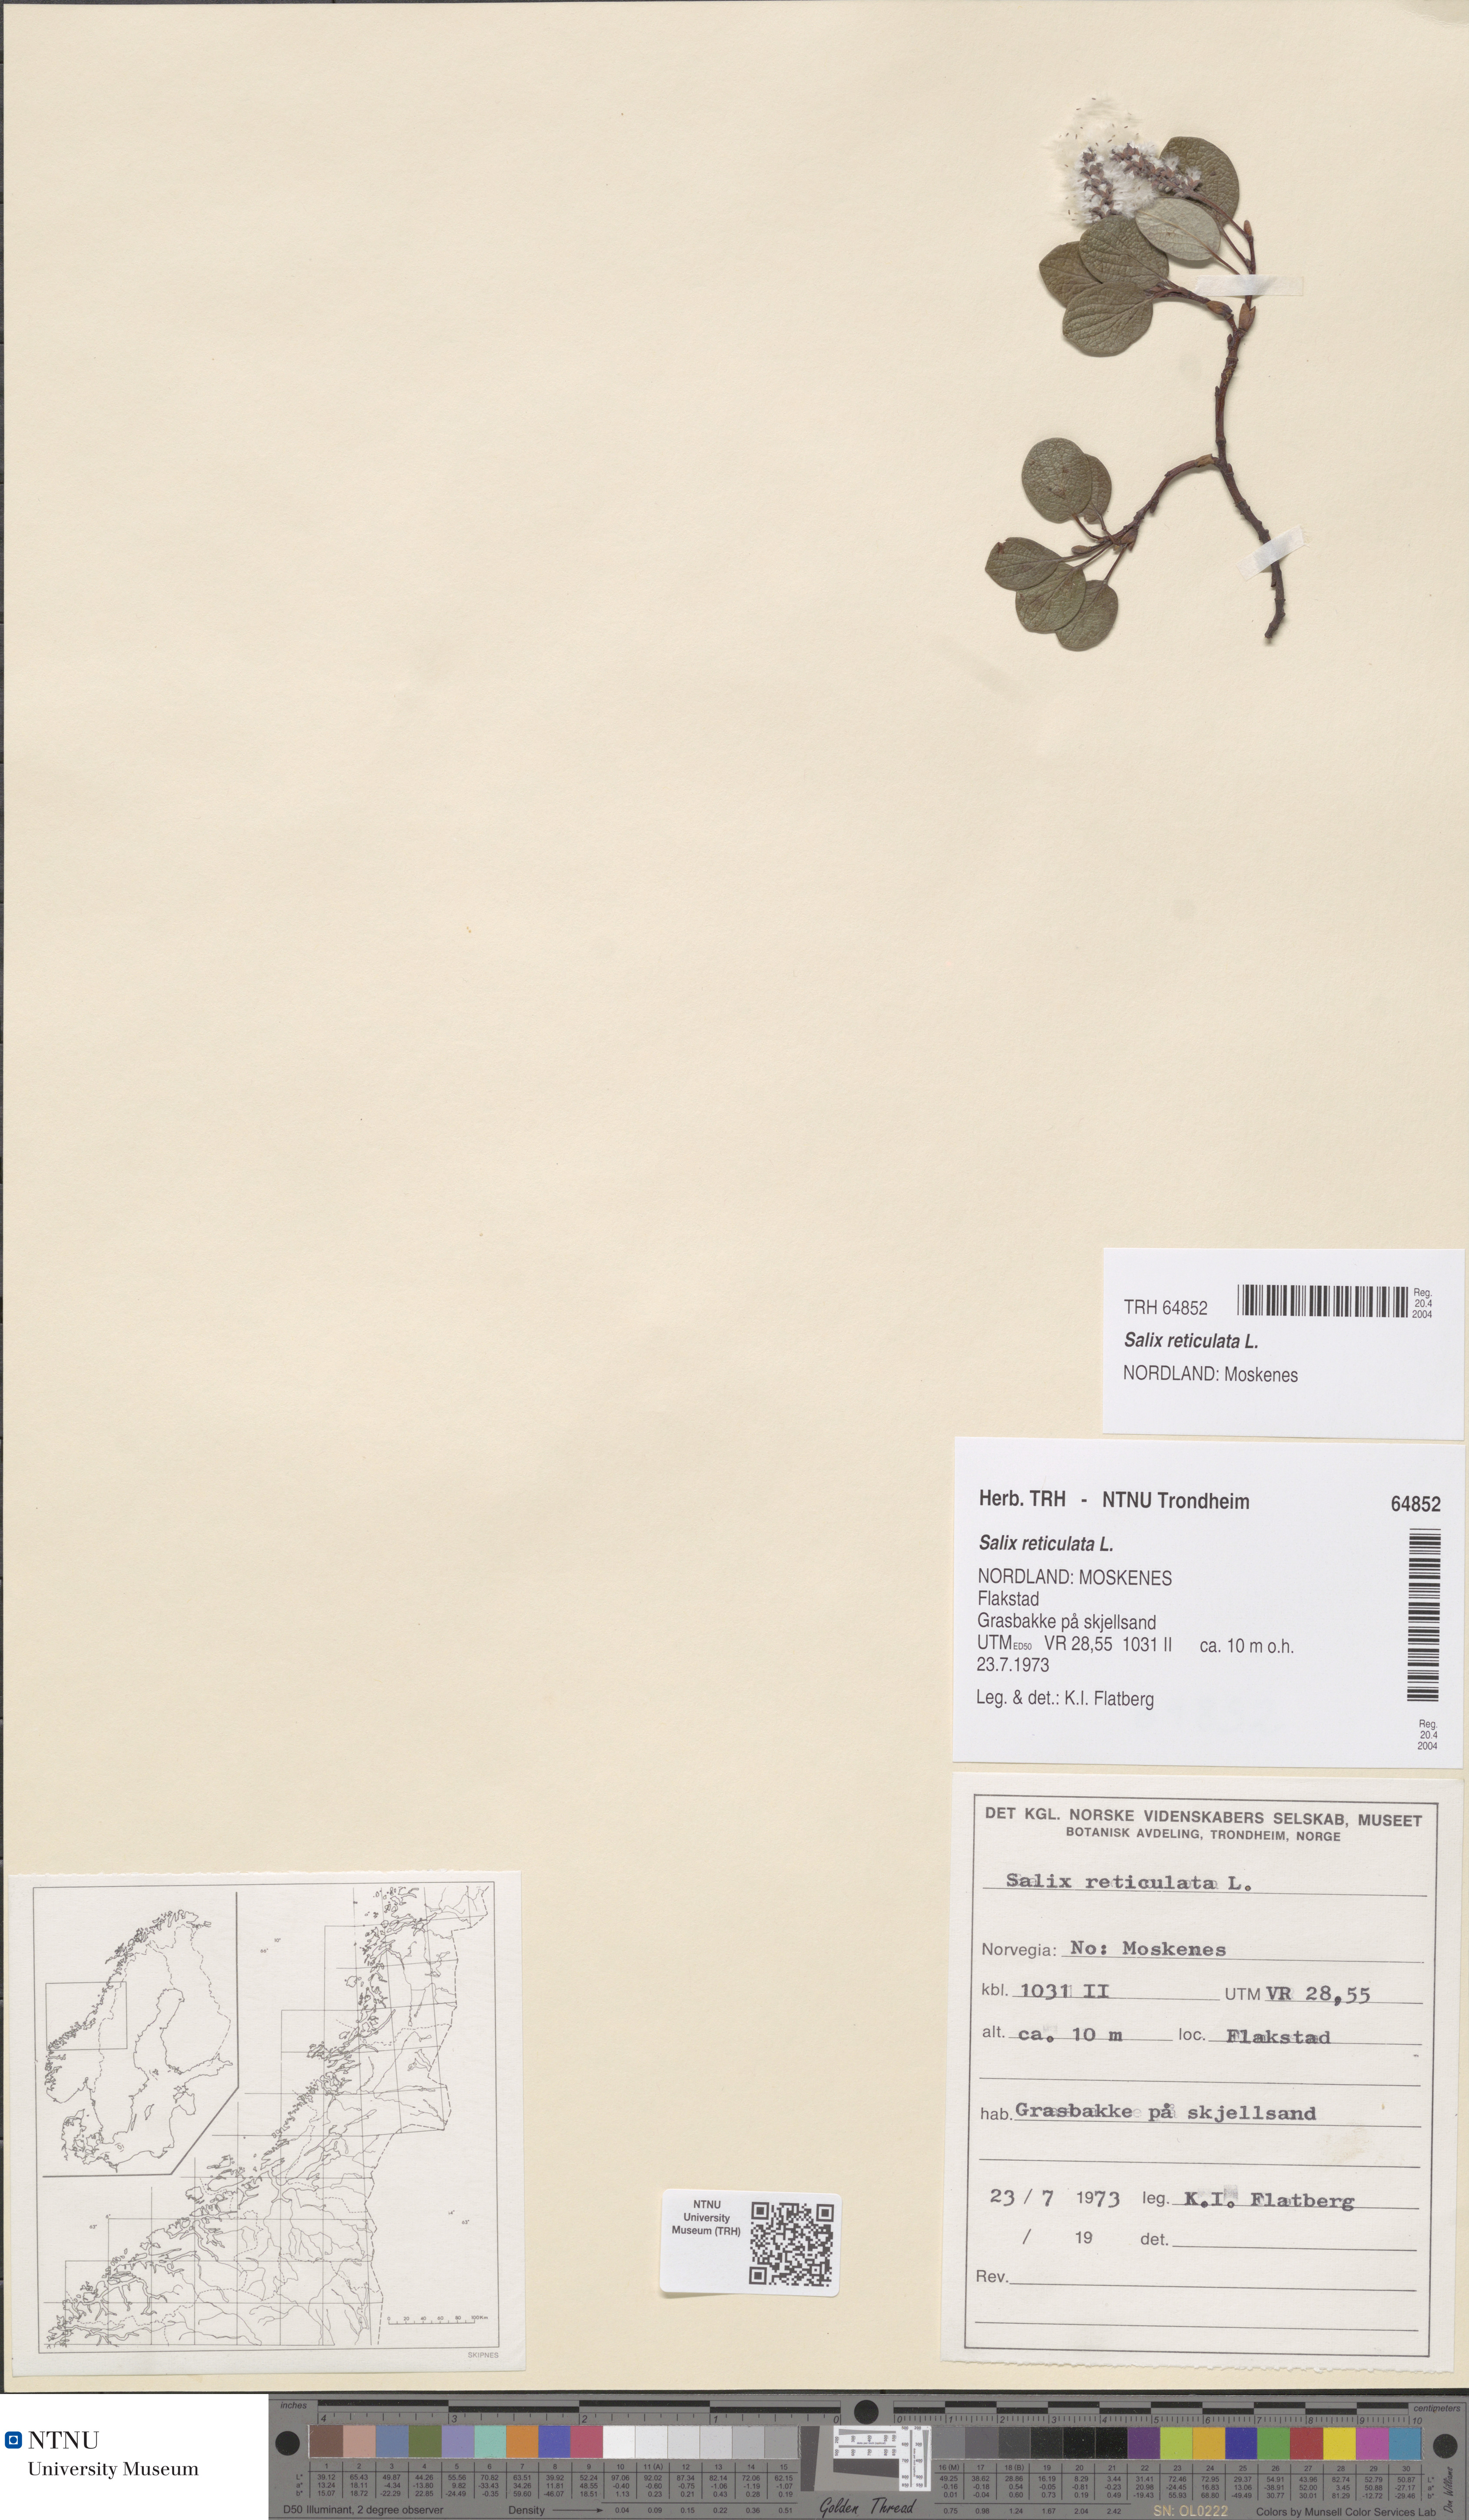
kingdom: Plantae
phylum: Tracheophyta
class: Magnoliopsida
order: Malpighiales
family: Salicaceae
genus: Salix
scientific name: Salix reticulata
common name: Net-leaved willow
